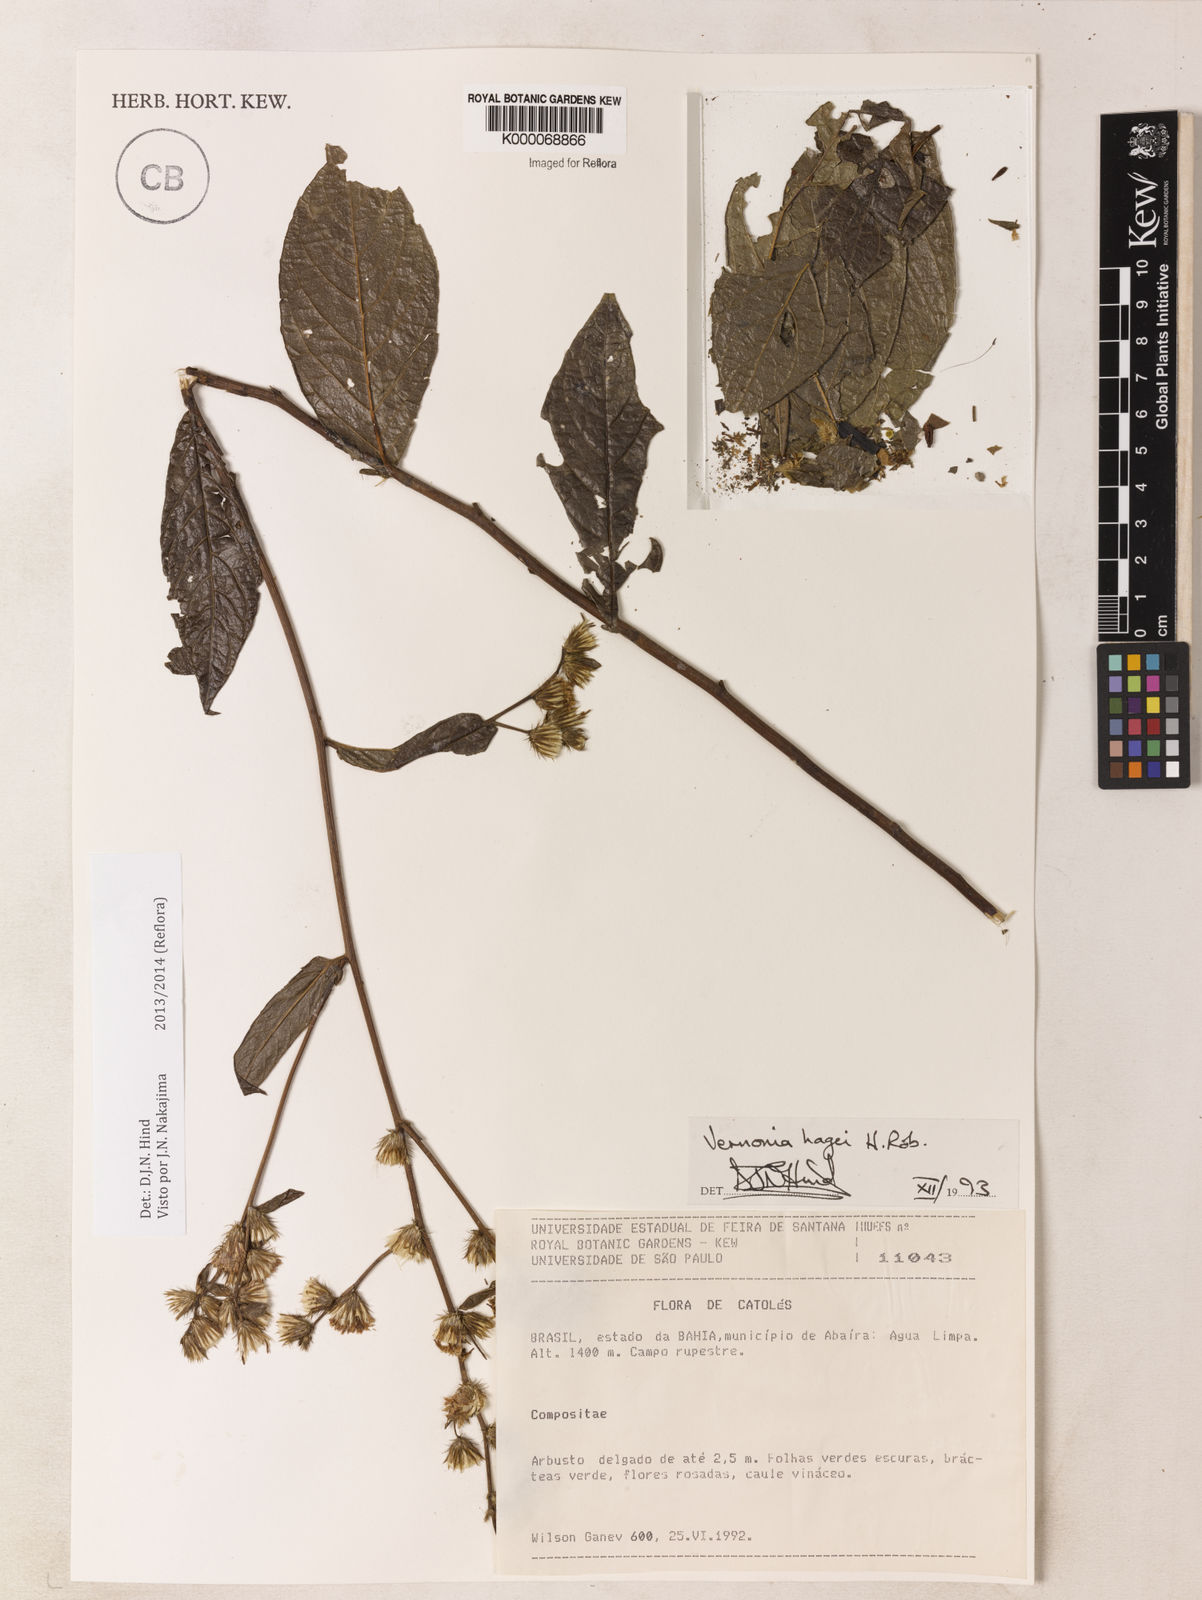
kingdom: Plantae
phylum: Tracheophyta
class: Magnoliopsida
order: Asterales
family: Asteraceae
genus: Lepidaploa
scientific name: Lepidaploa hagei
